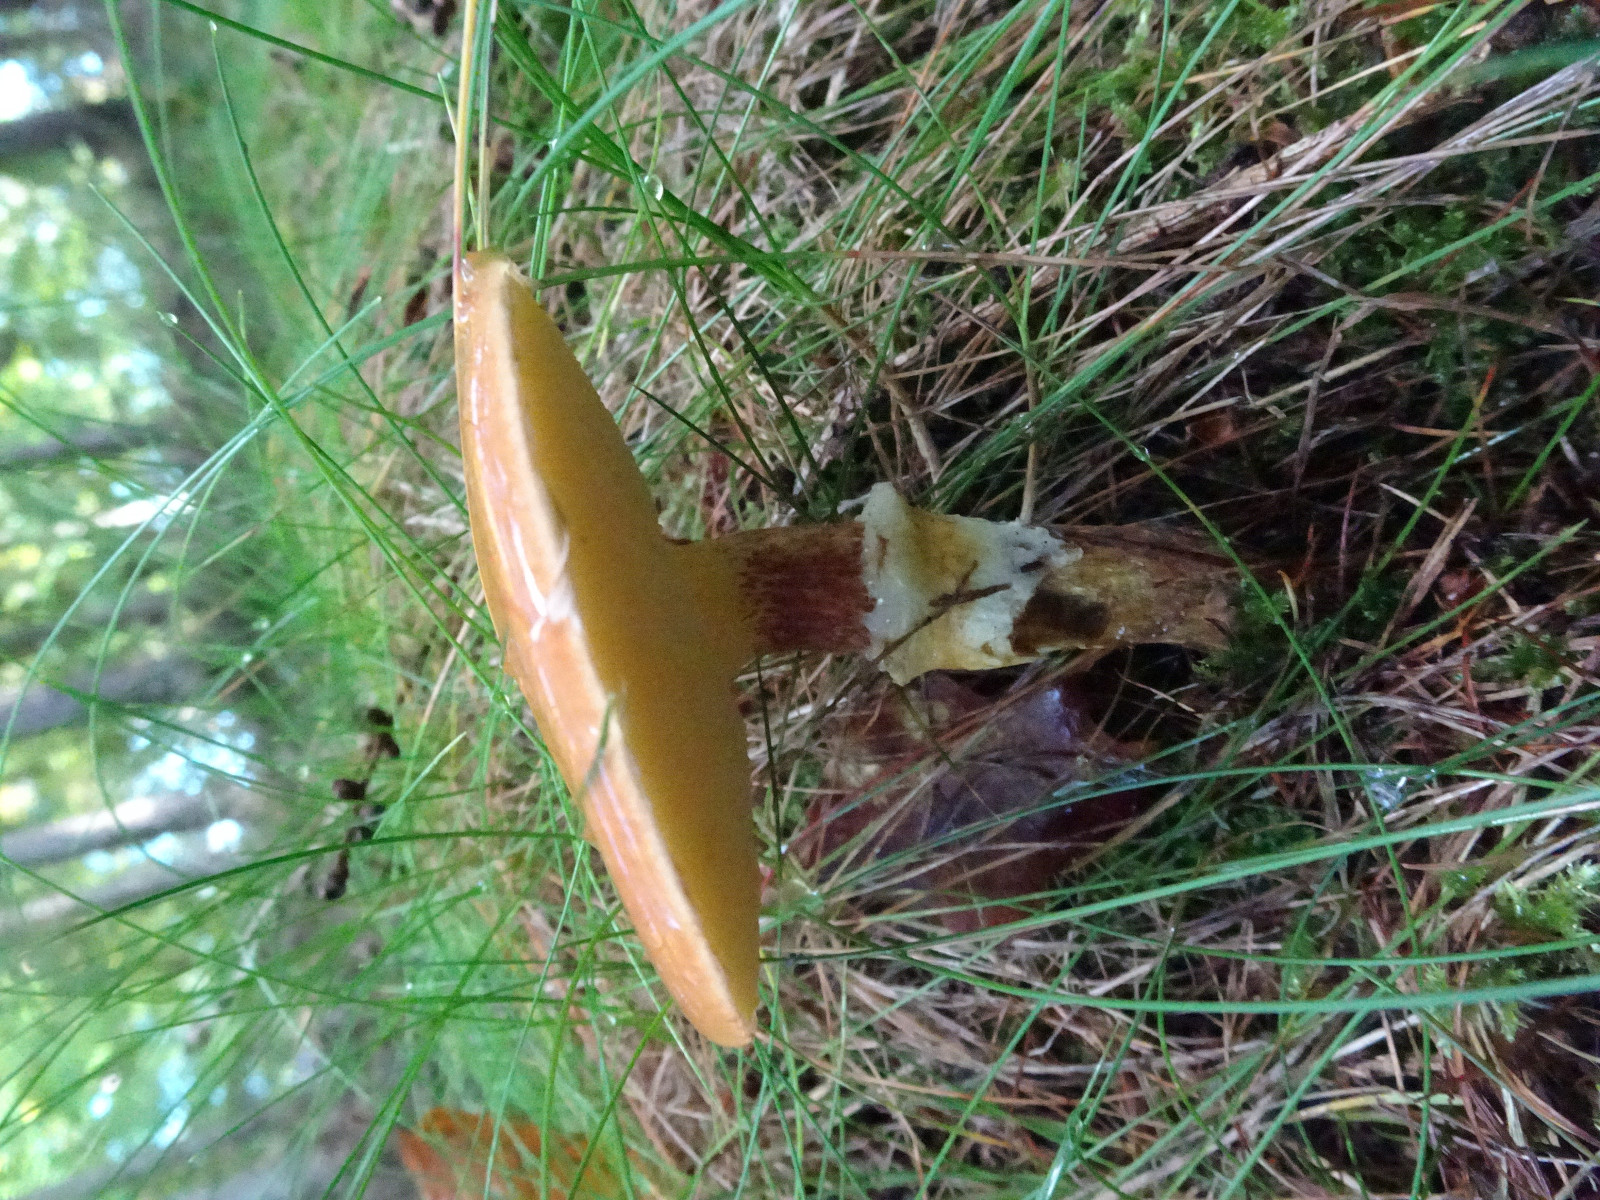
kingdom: Fungi
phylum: Basidiomycota
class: Agaricomycetes
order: Boletales
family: Suillaceae
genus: Suillus
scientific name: Suillus grevillei
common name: lærke-slimrørhat
